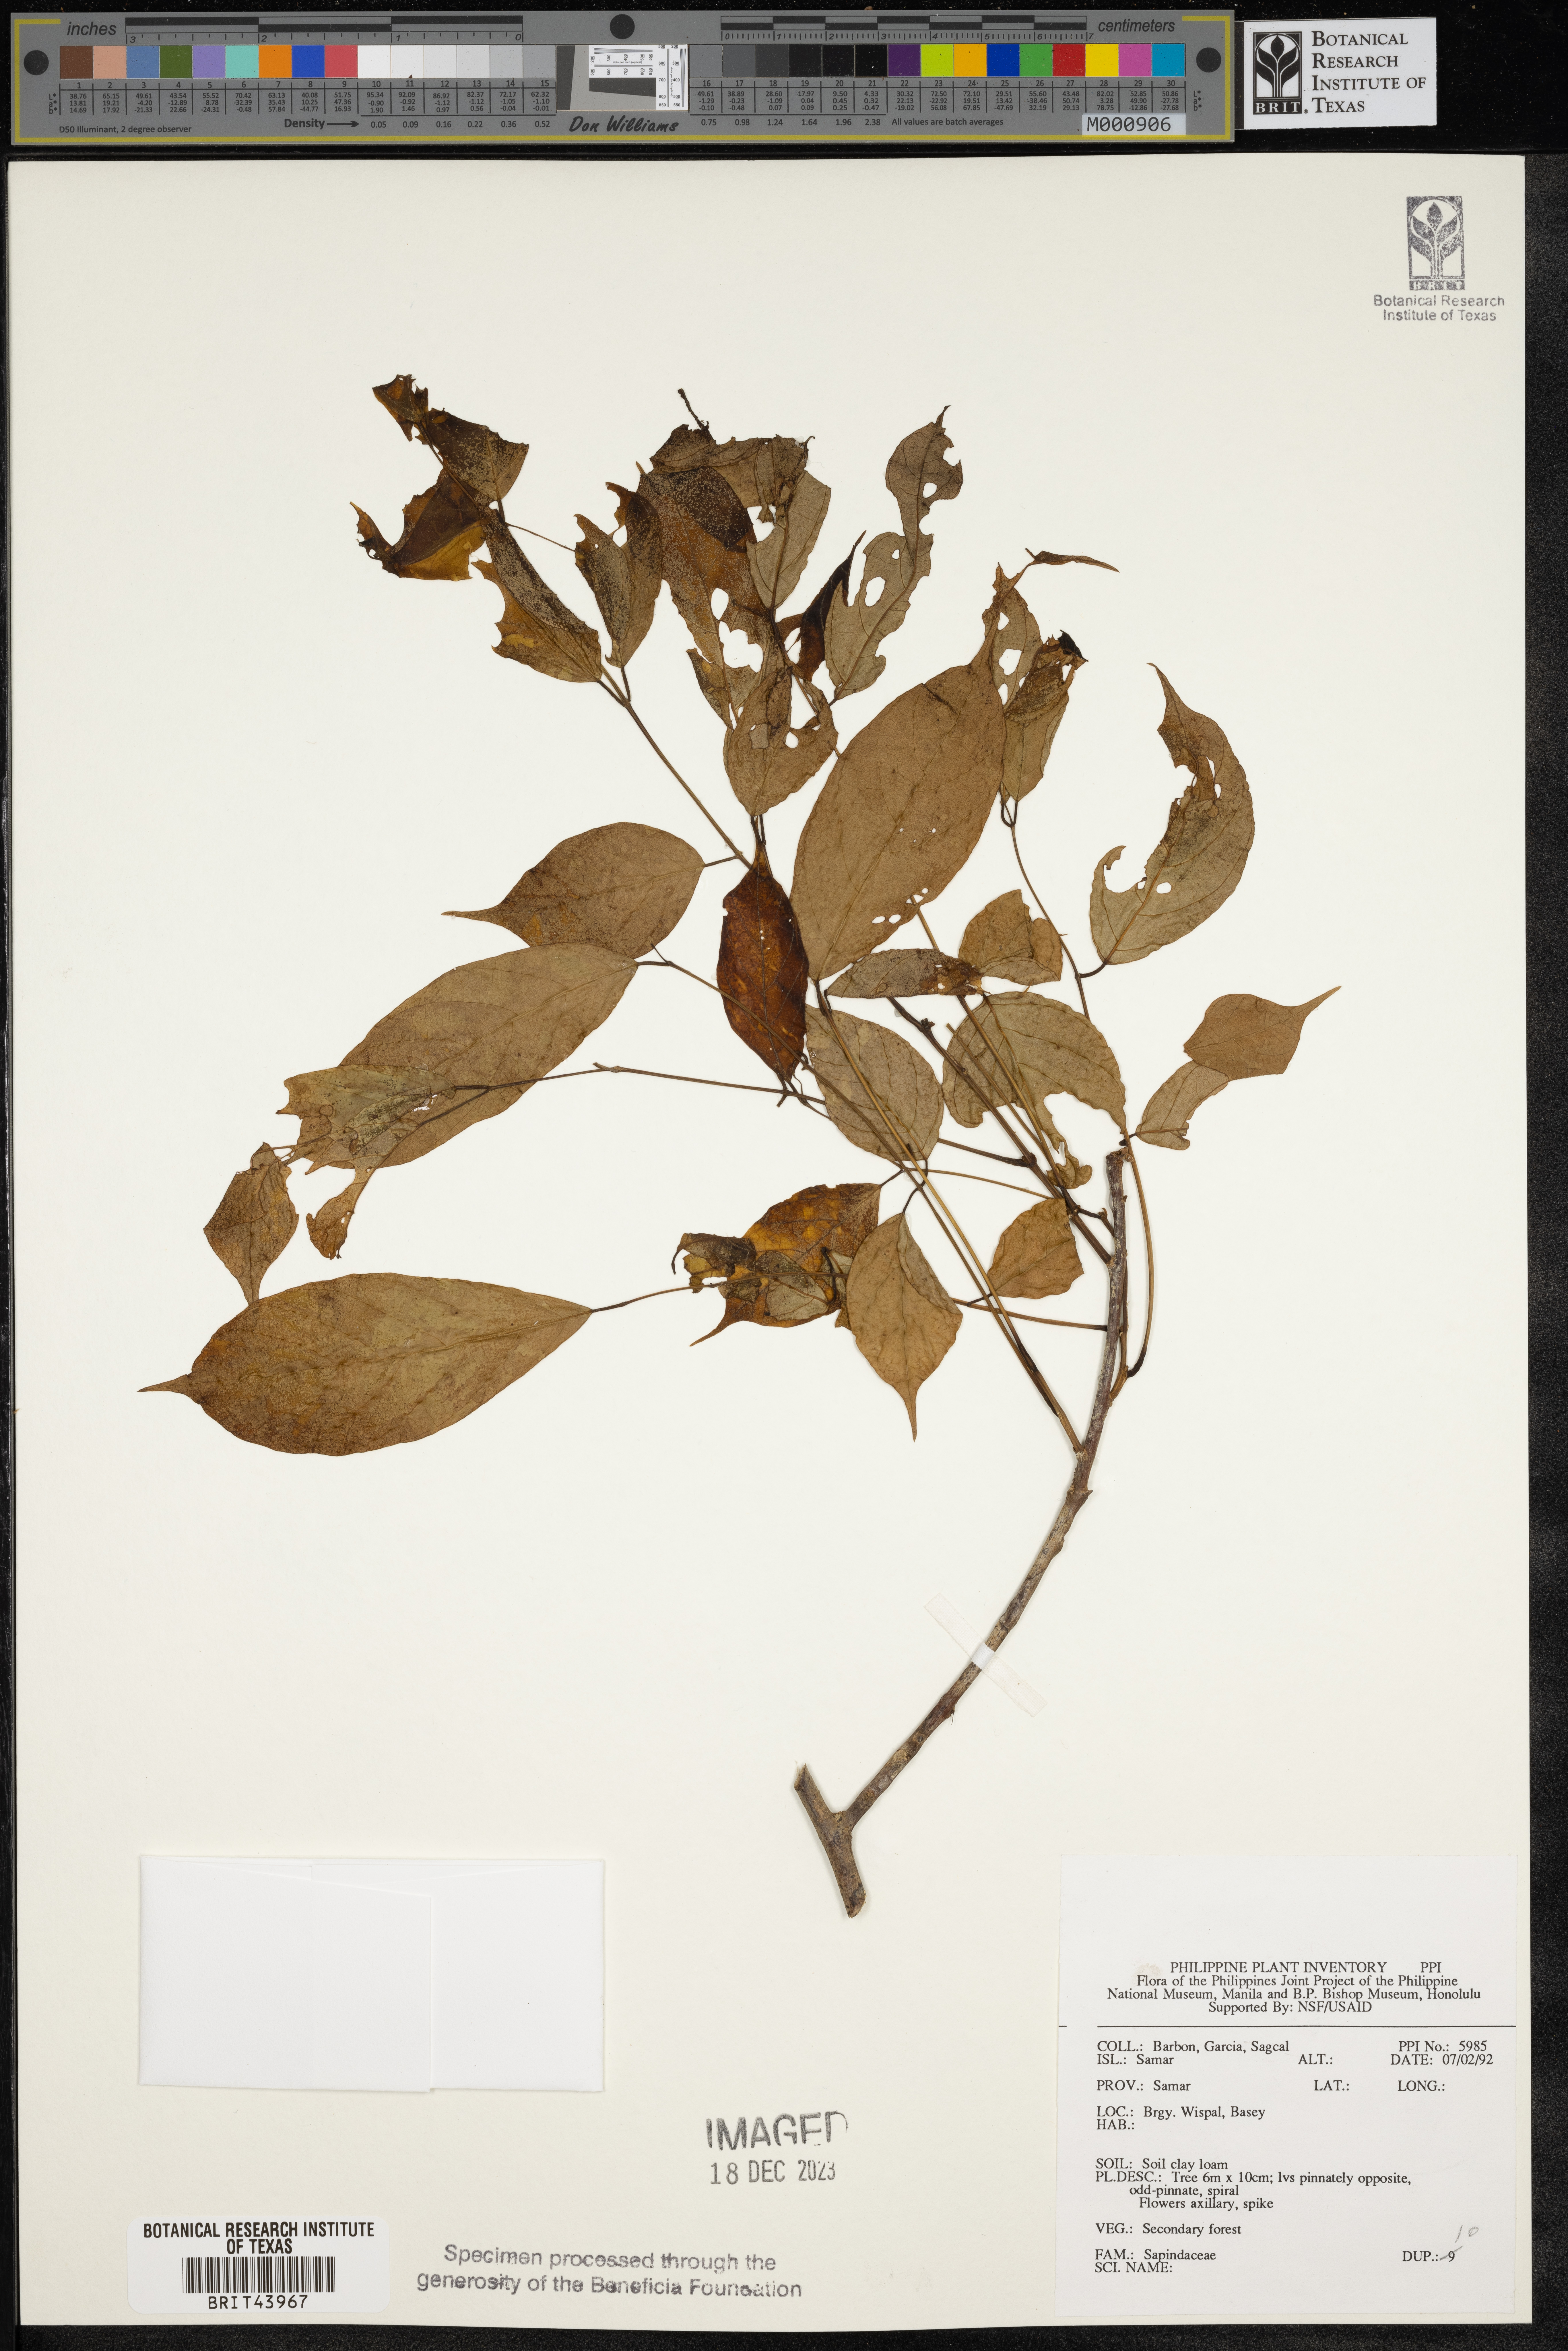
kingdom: Plantae
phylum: Tracheophyta
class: Magnoliopsida
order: Sapindales
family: Sapindaceae
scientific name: Sapindaceae
